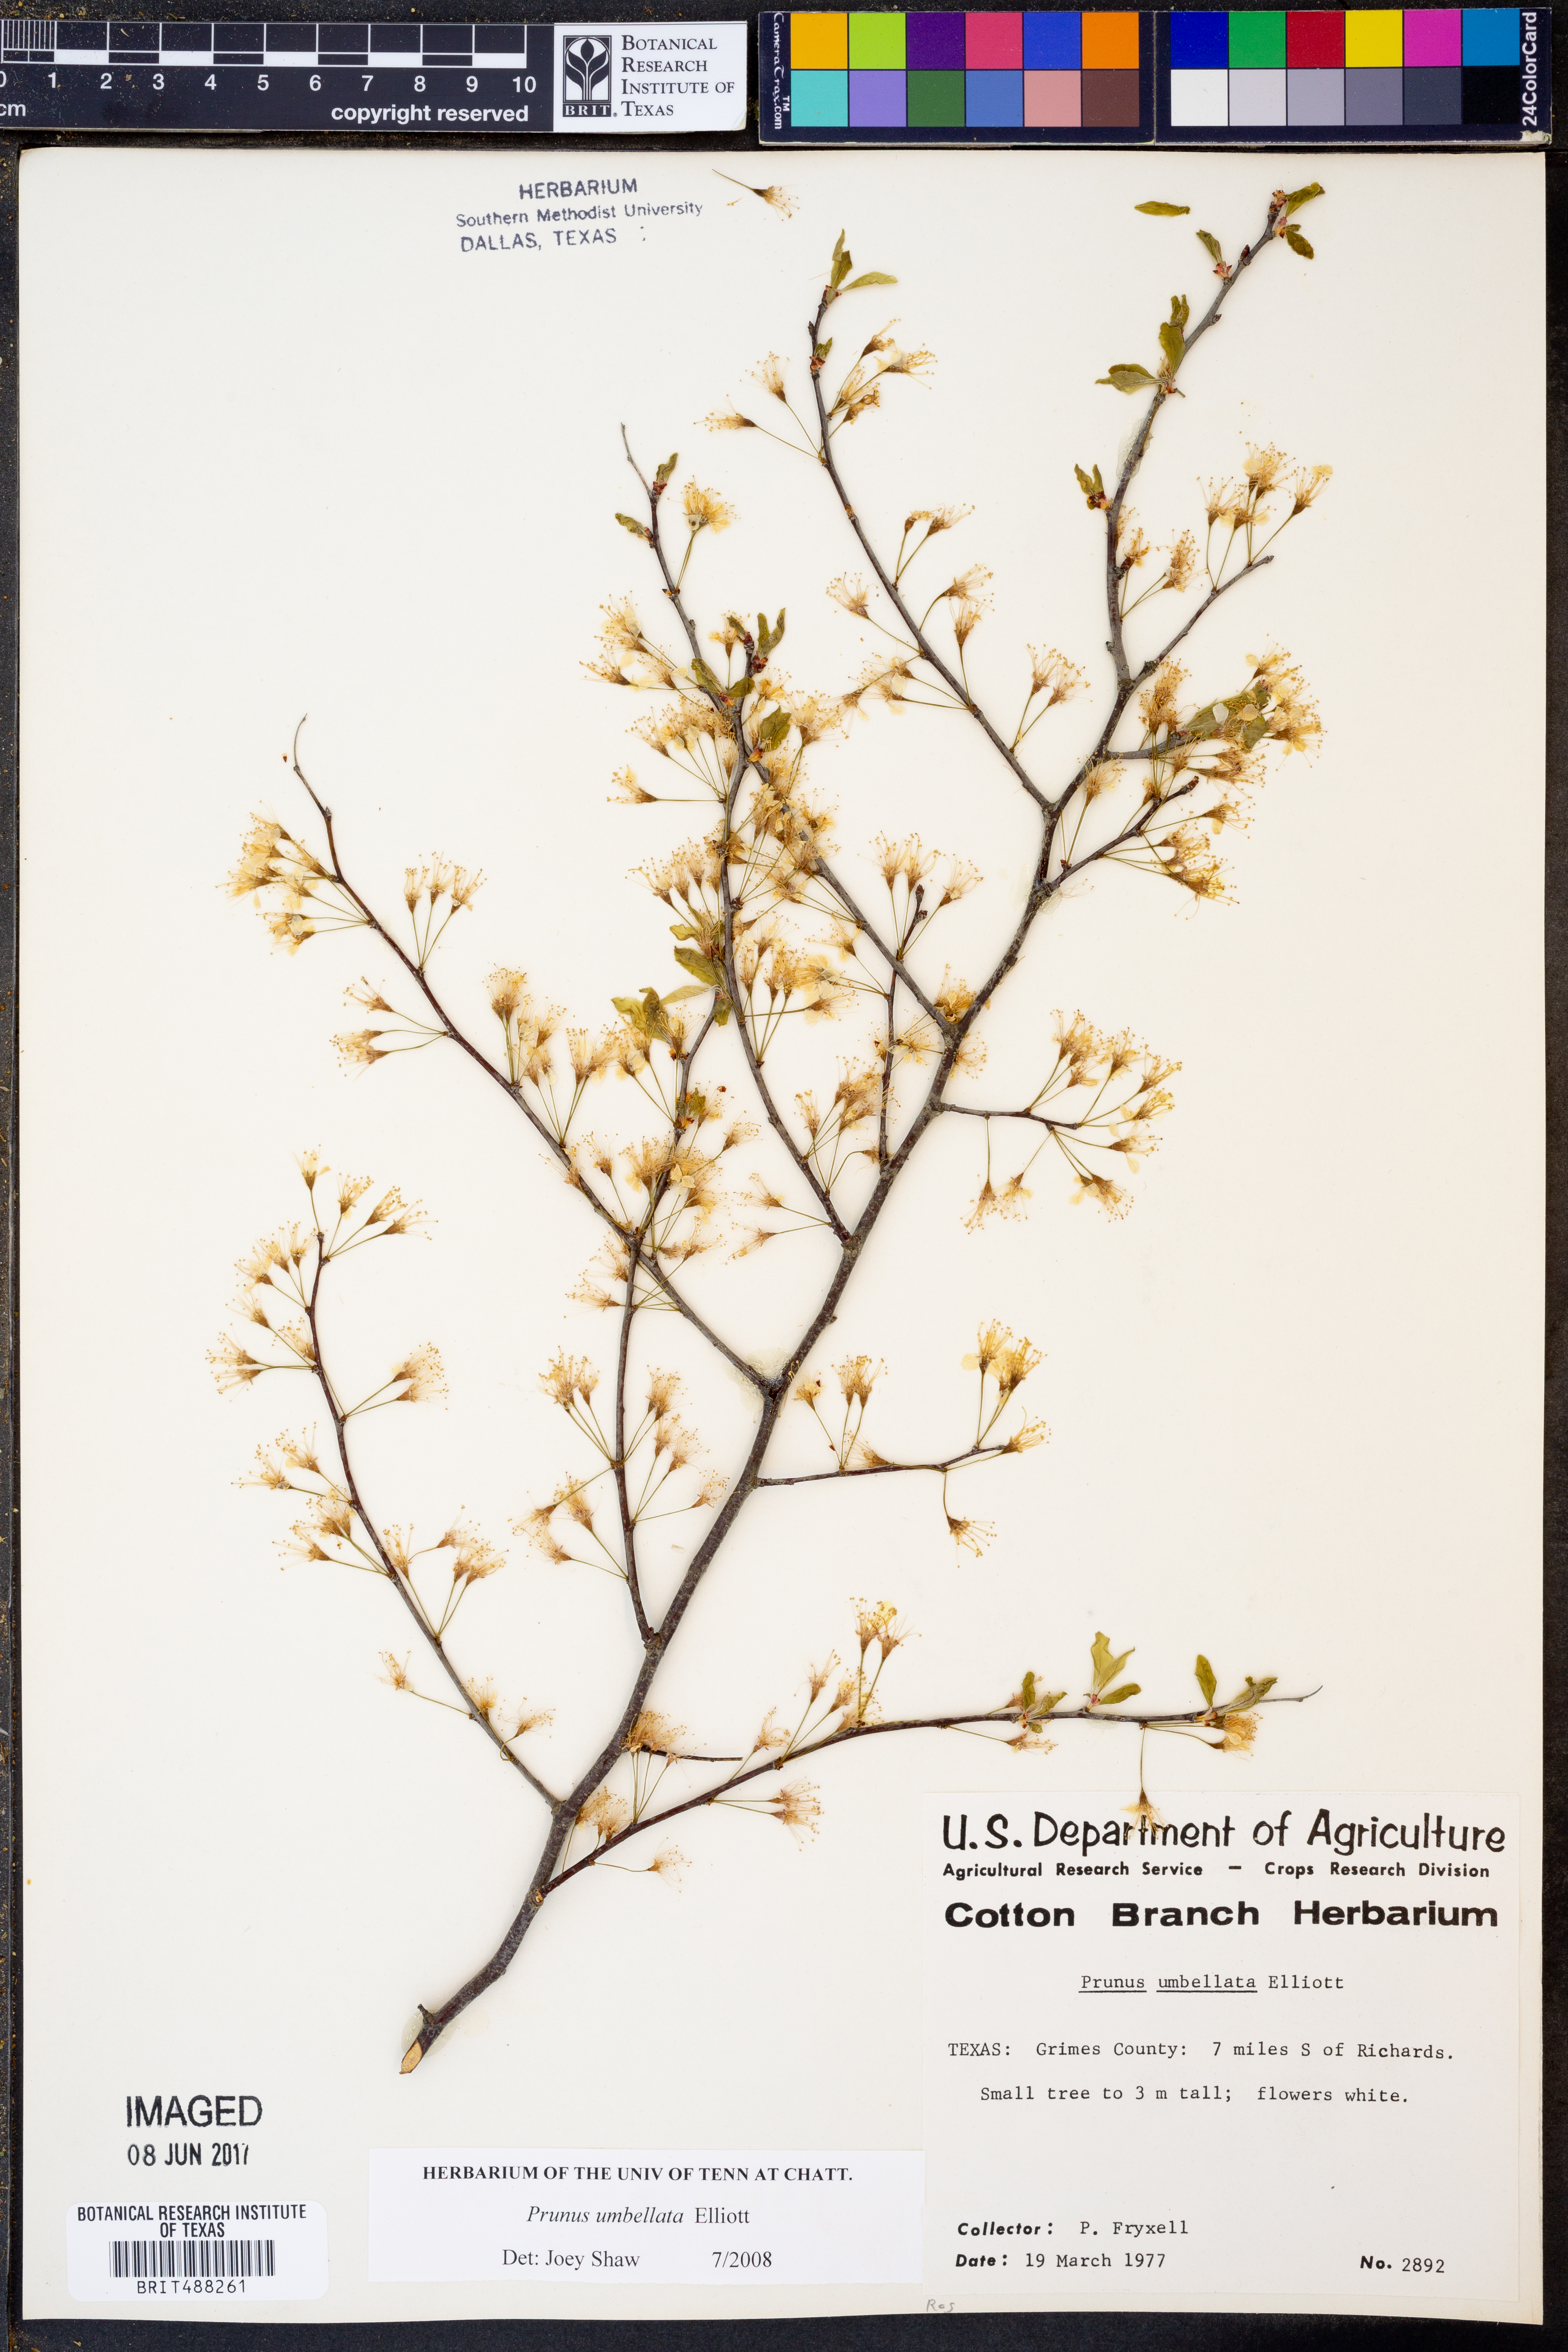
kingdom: Plantae
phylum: Tracheophyta
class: Magnoliopsida
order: Rosales
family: Rosaceae
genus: Prunus
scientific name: Prunus umbellata
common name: Allegheny plum
